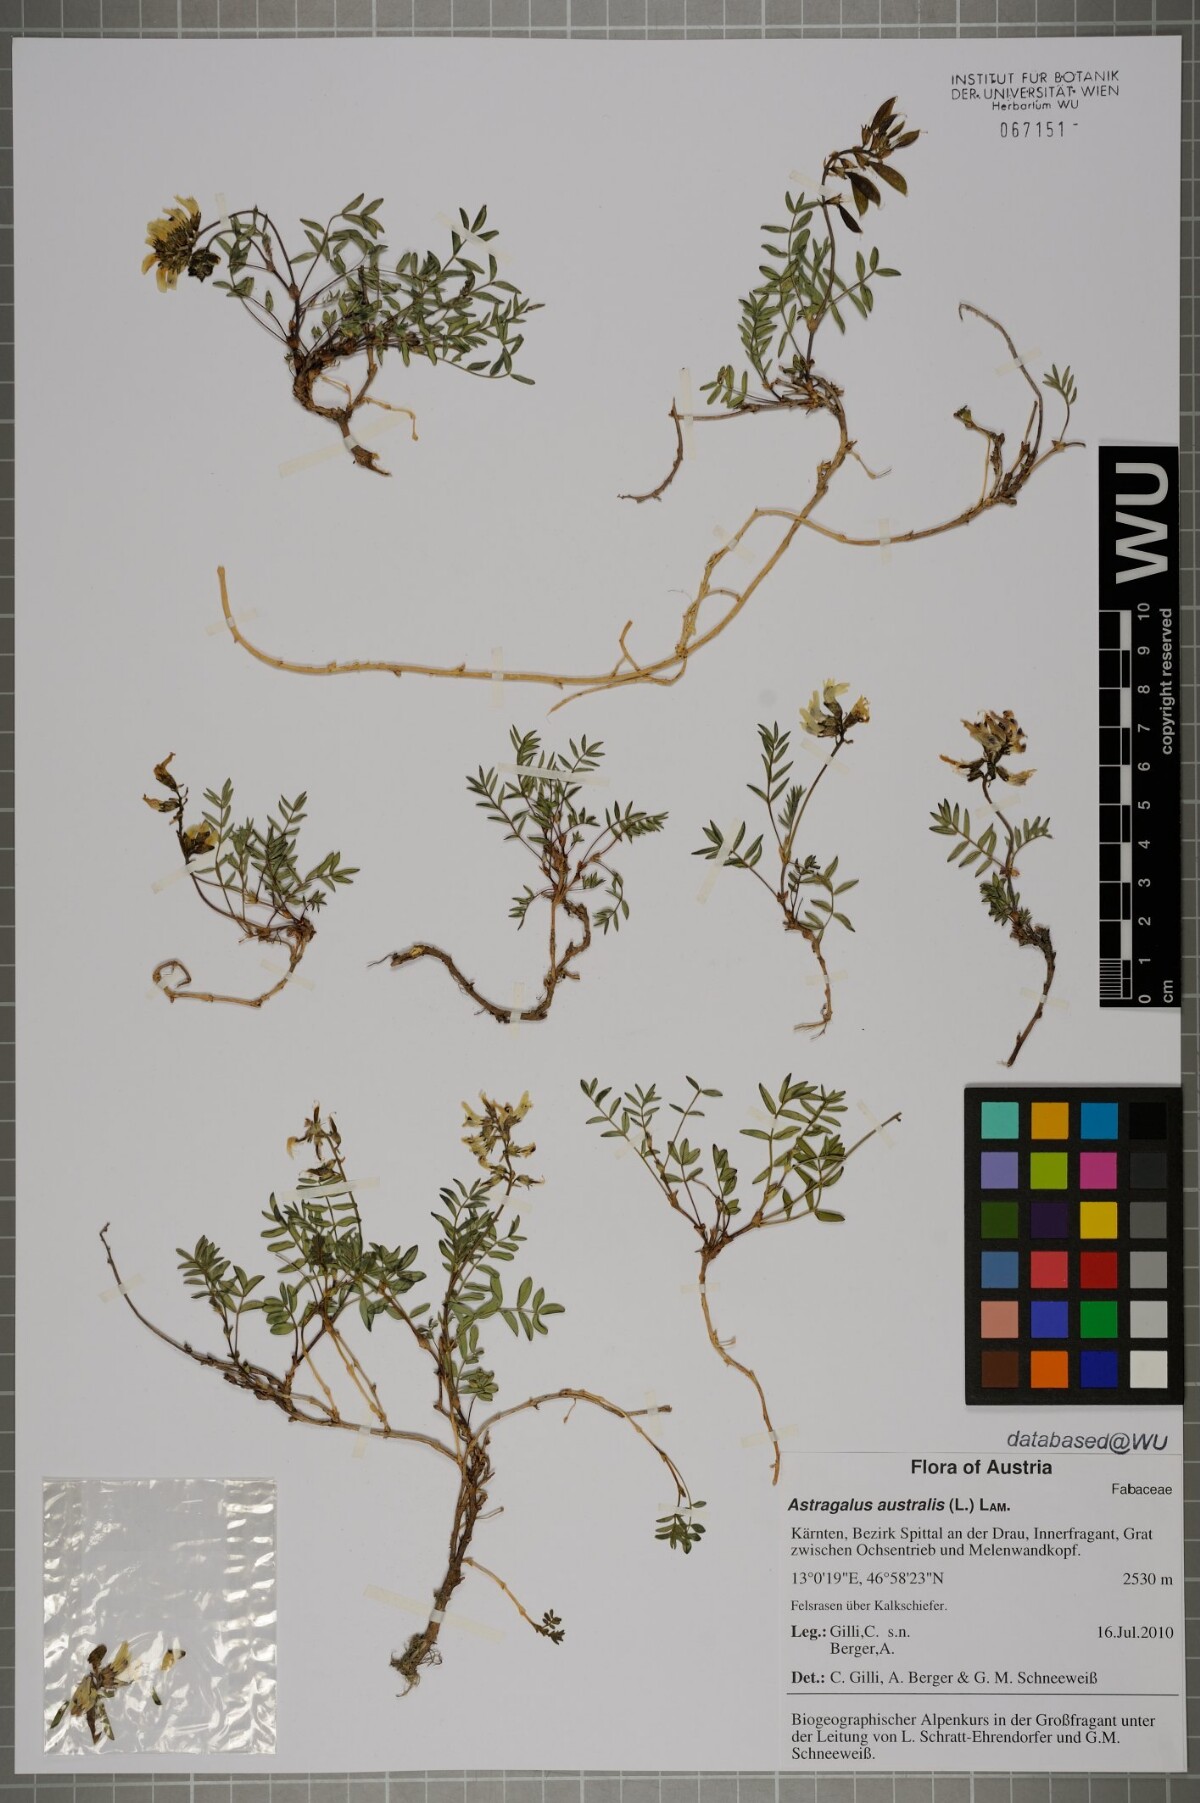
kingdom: Plantae
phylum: Tracheophyta
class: Magnoliopsida
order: Fabales
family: Fabaceae
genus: Astragalus
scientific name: Astragalus australis
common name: Indian milk-vetch
